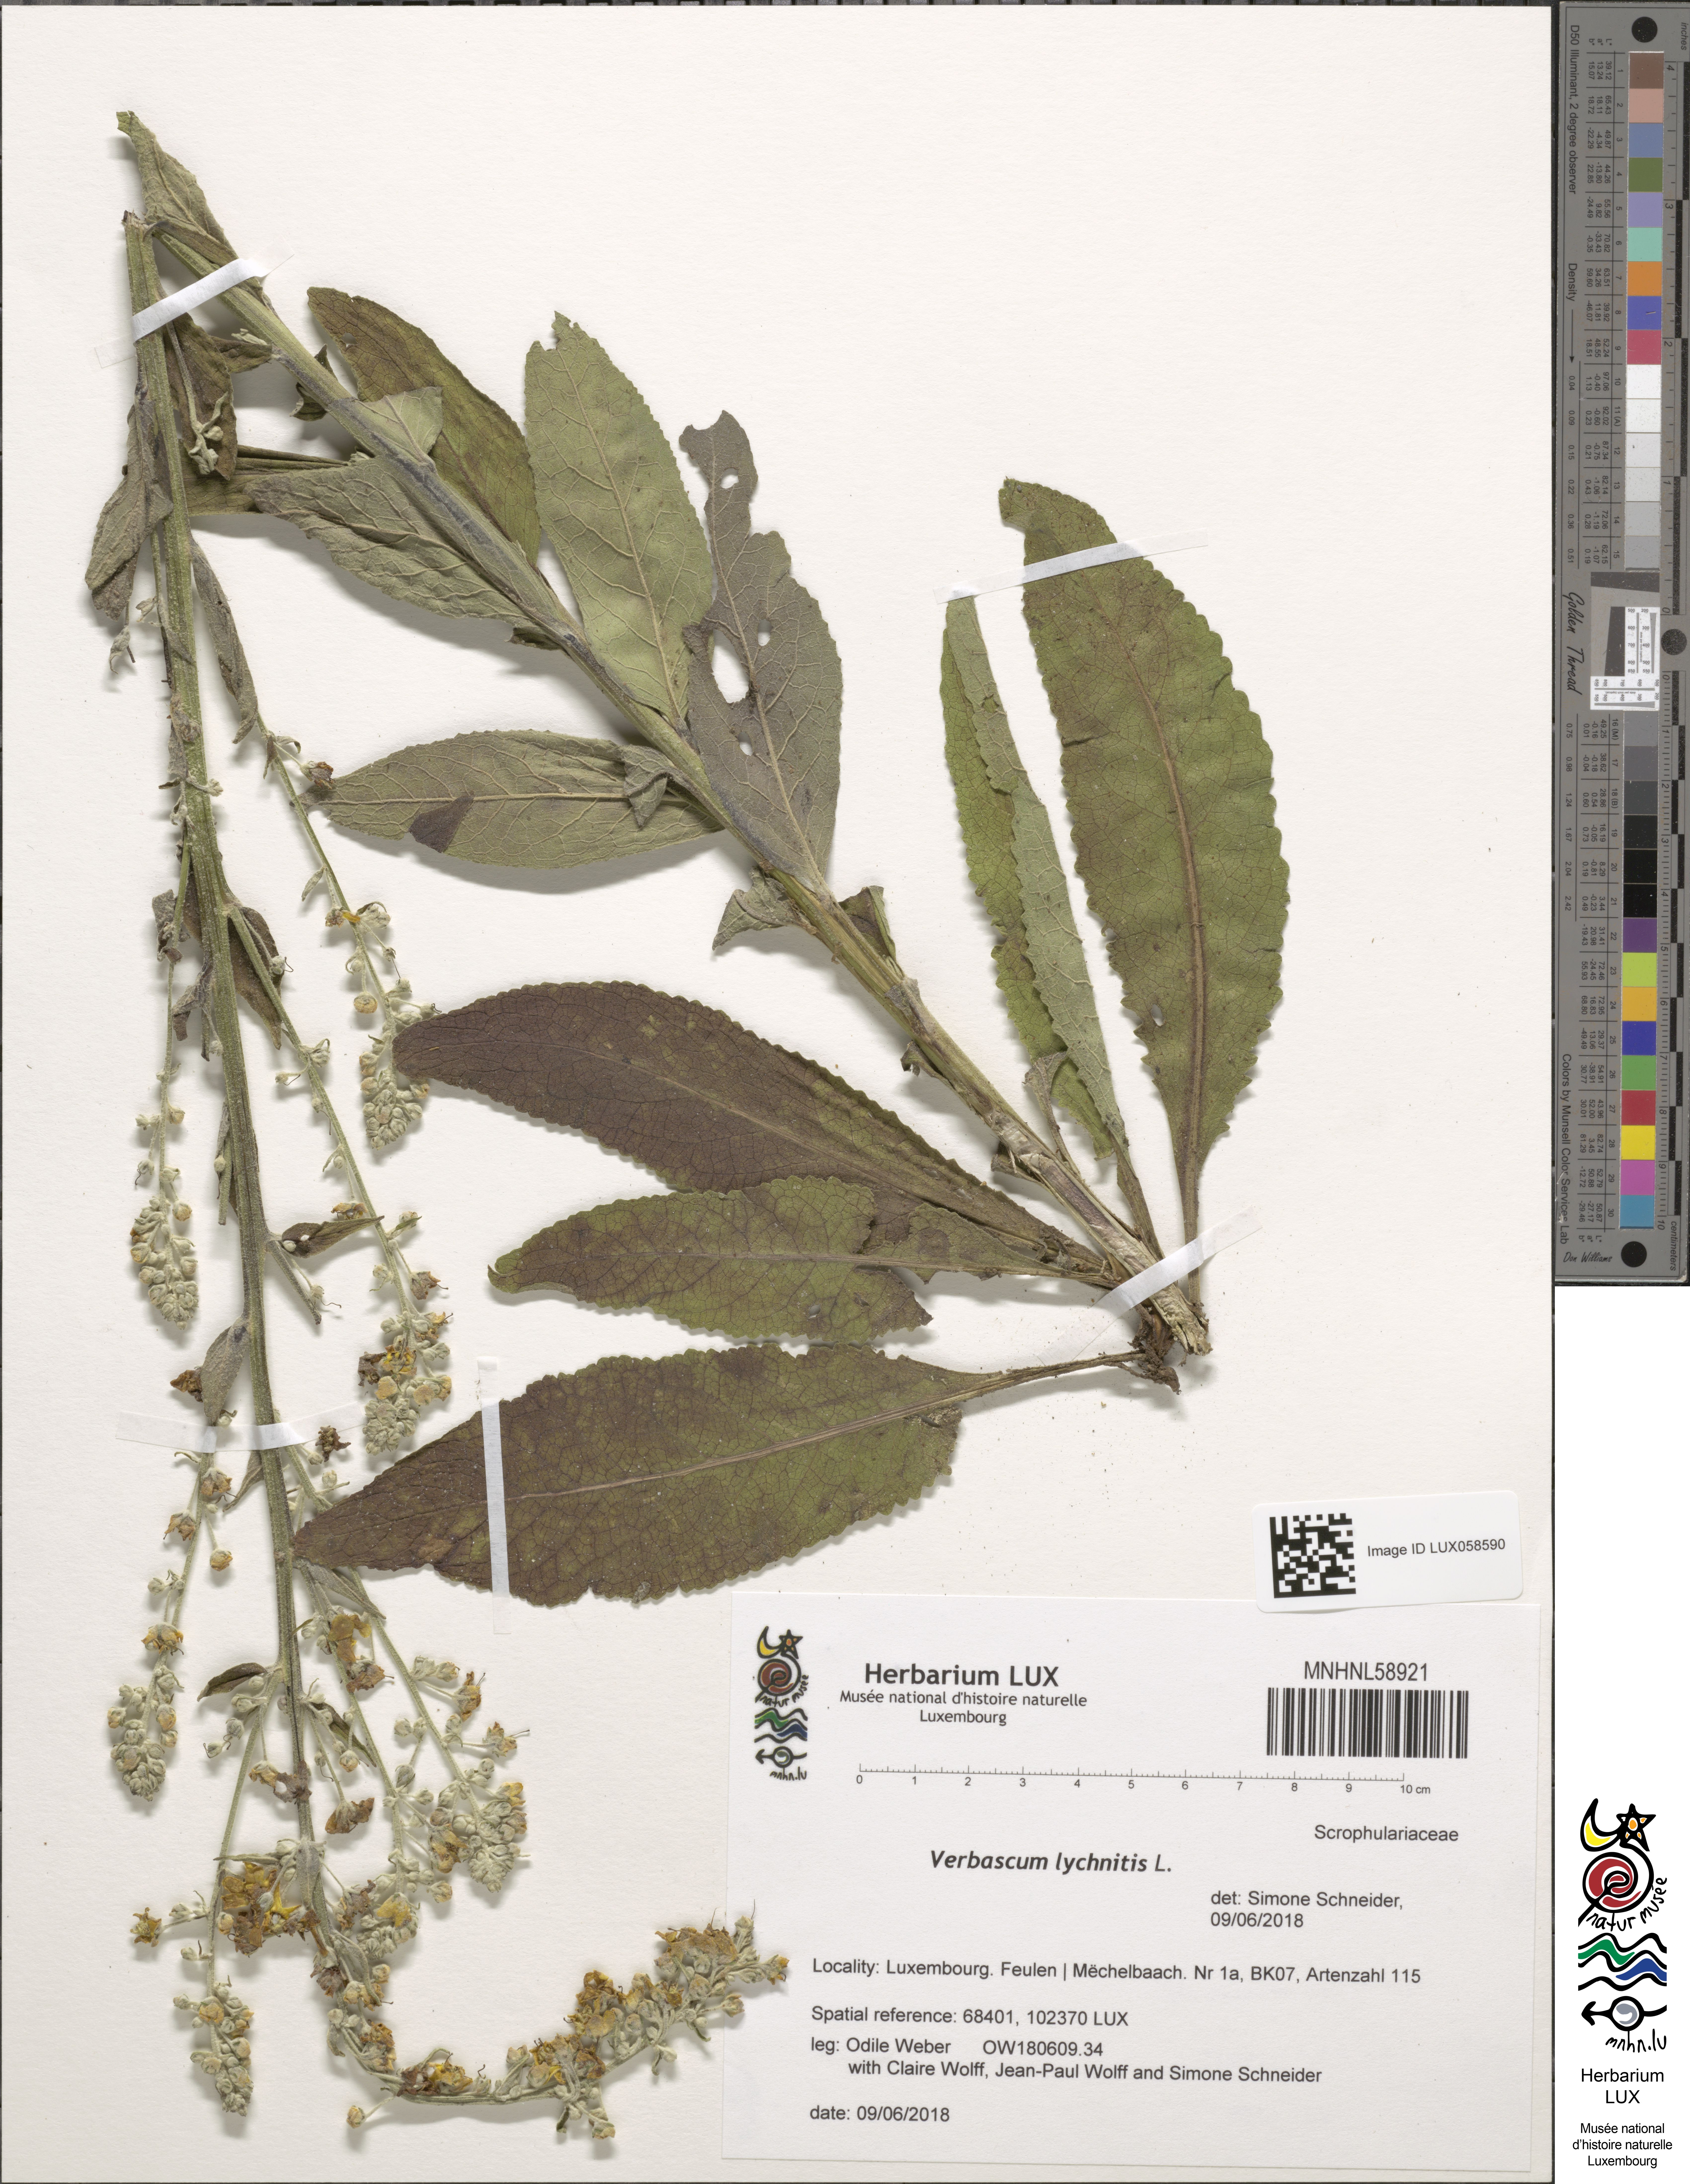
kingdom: Plantae
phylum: Tracheophyta
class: Magnoliopsida
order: Lamiales
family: Scrophulariaceae
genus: Verbascum
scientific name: Verbascum lychnitis
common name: White mullein
